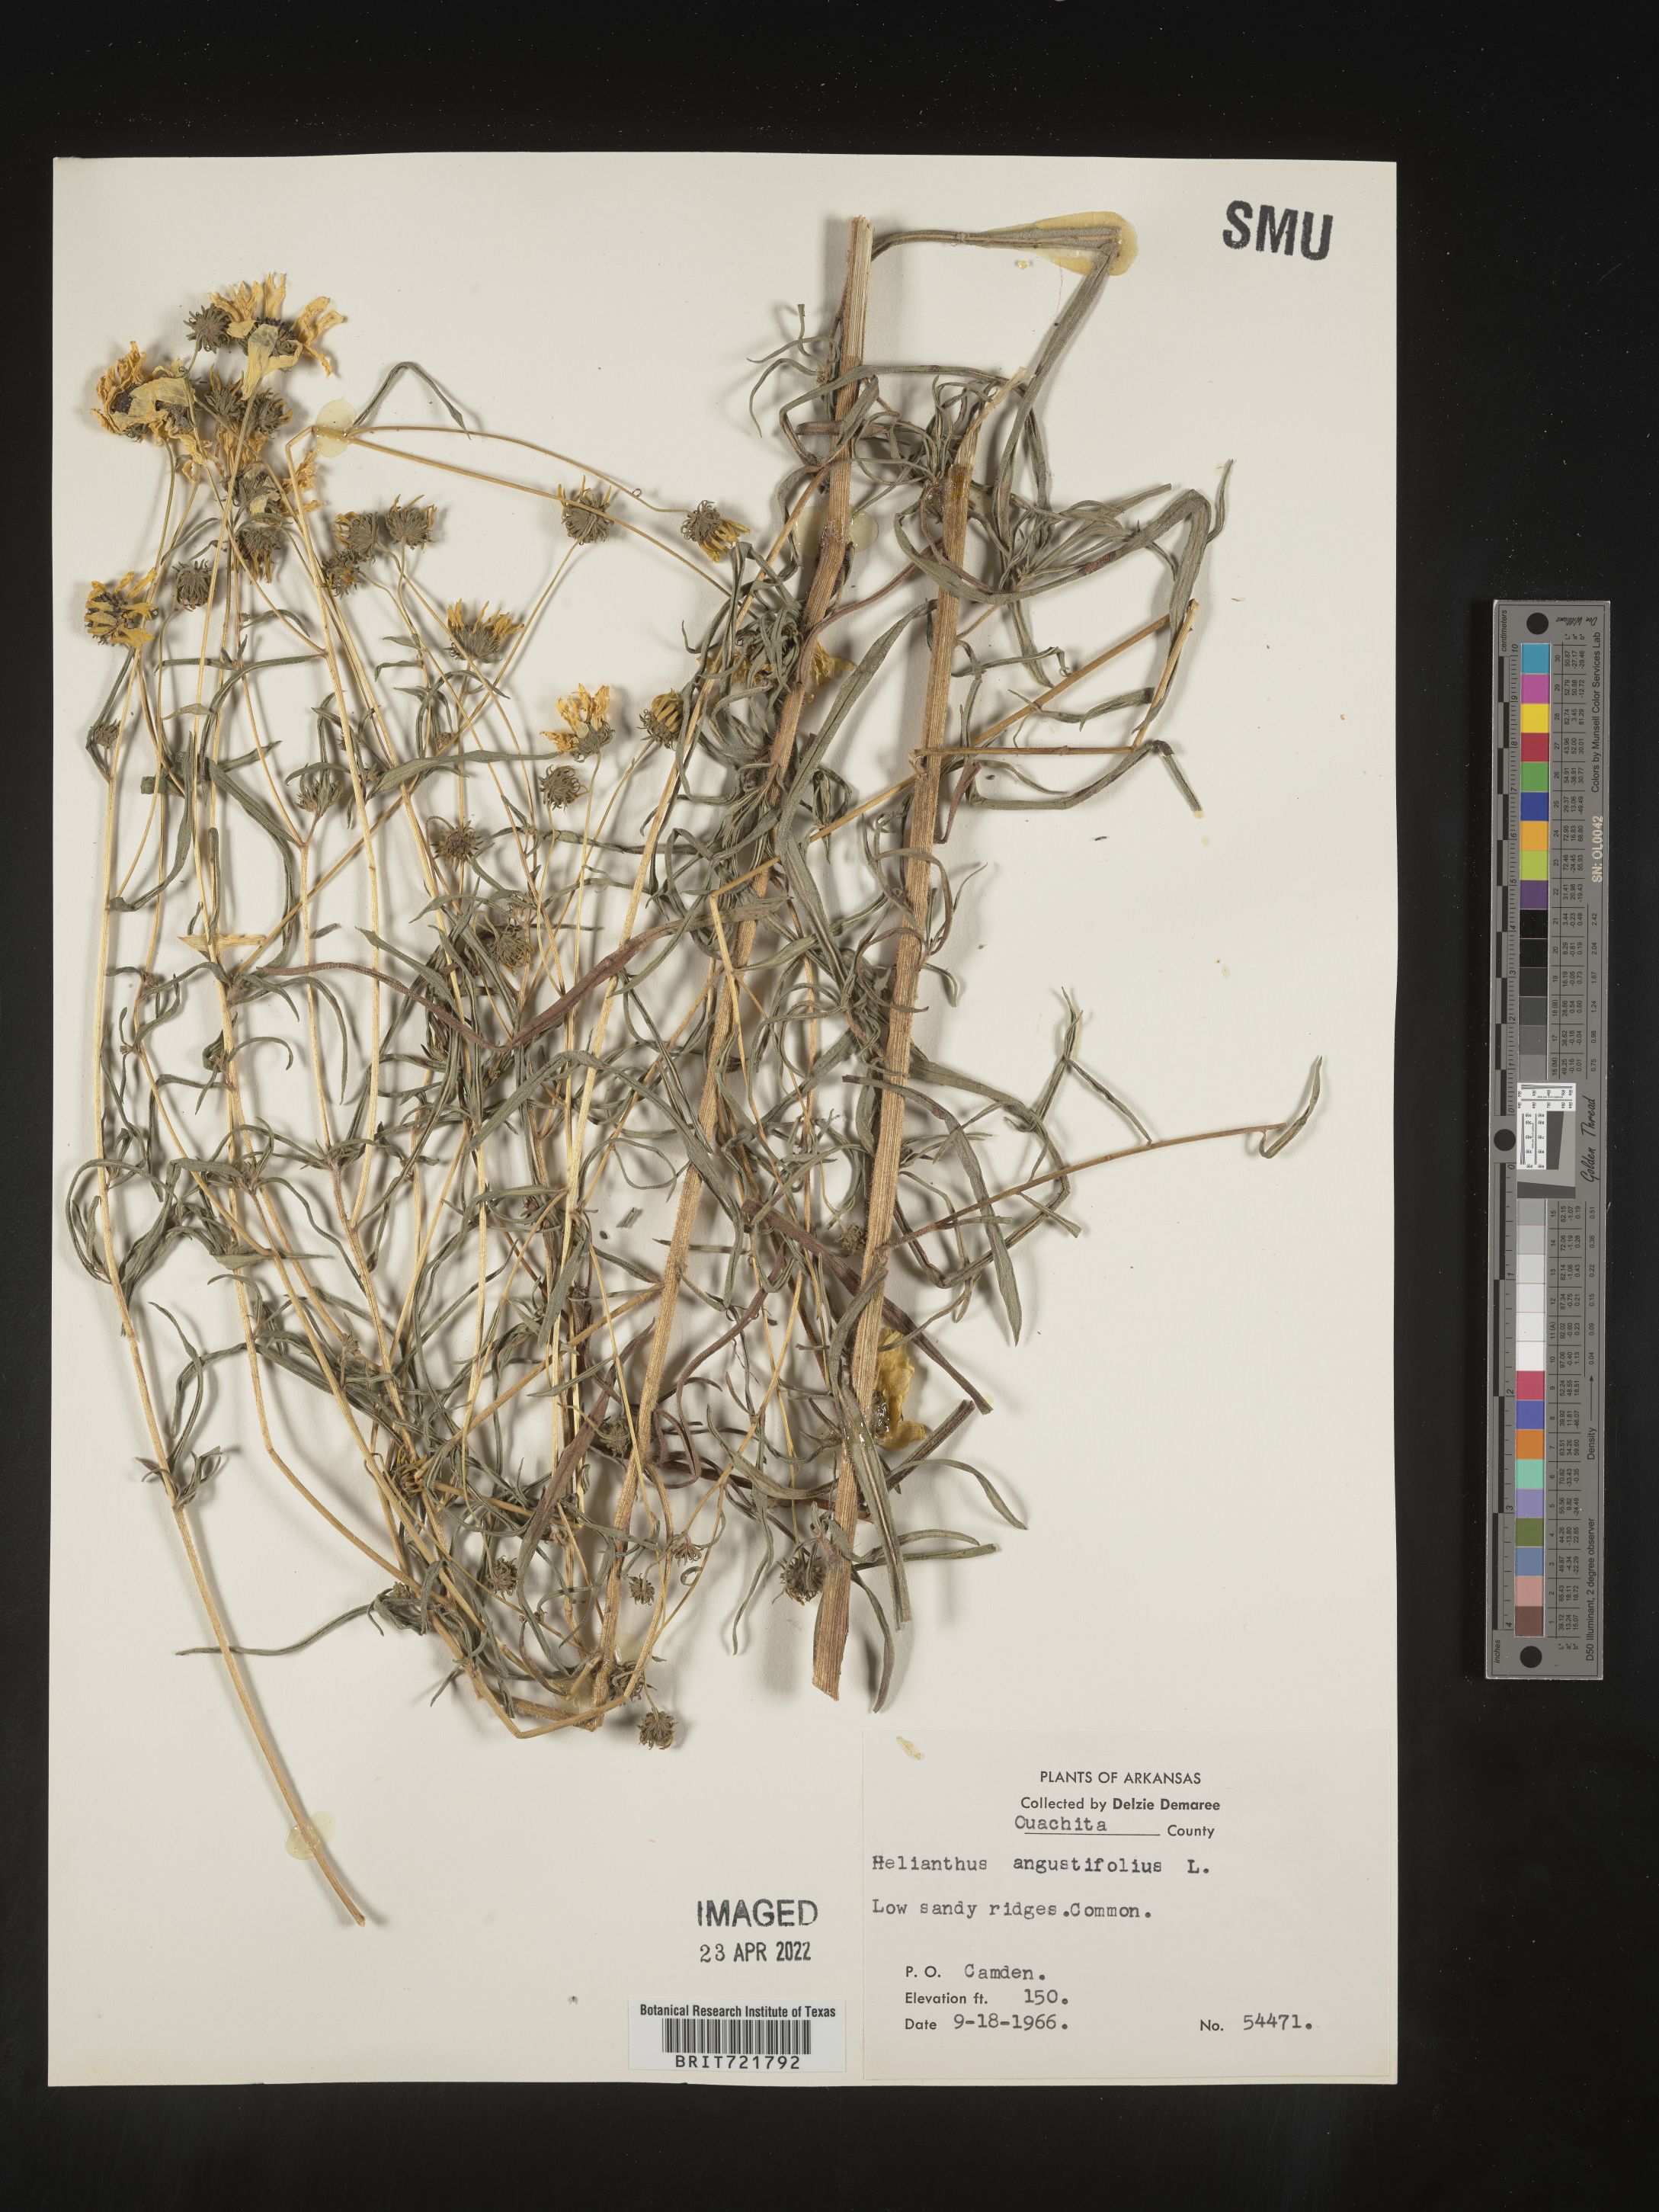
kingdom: Plantae
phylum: Tracheophyta
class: Magnoliopsida
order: Asterales
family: Asteraceae
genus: Helianthus
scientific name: Helianthus angustifolius
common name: Swamp sunflower
